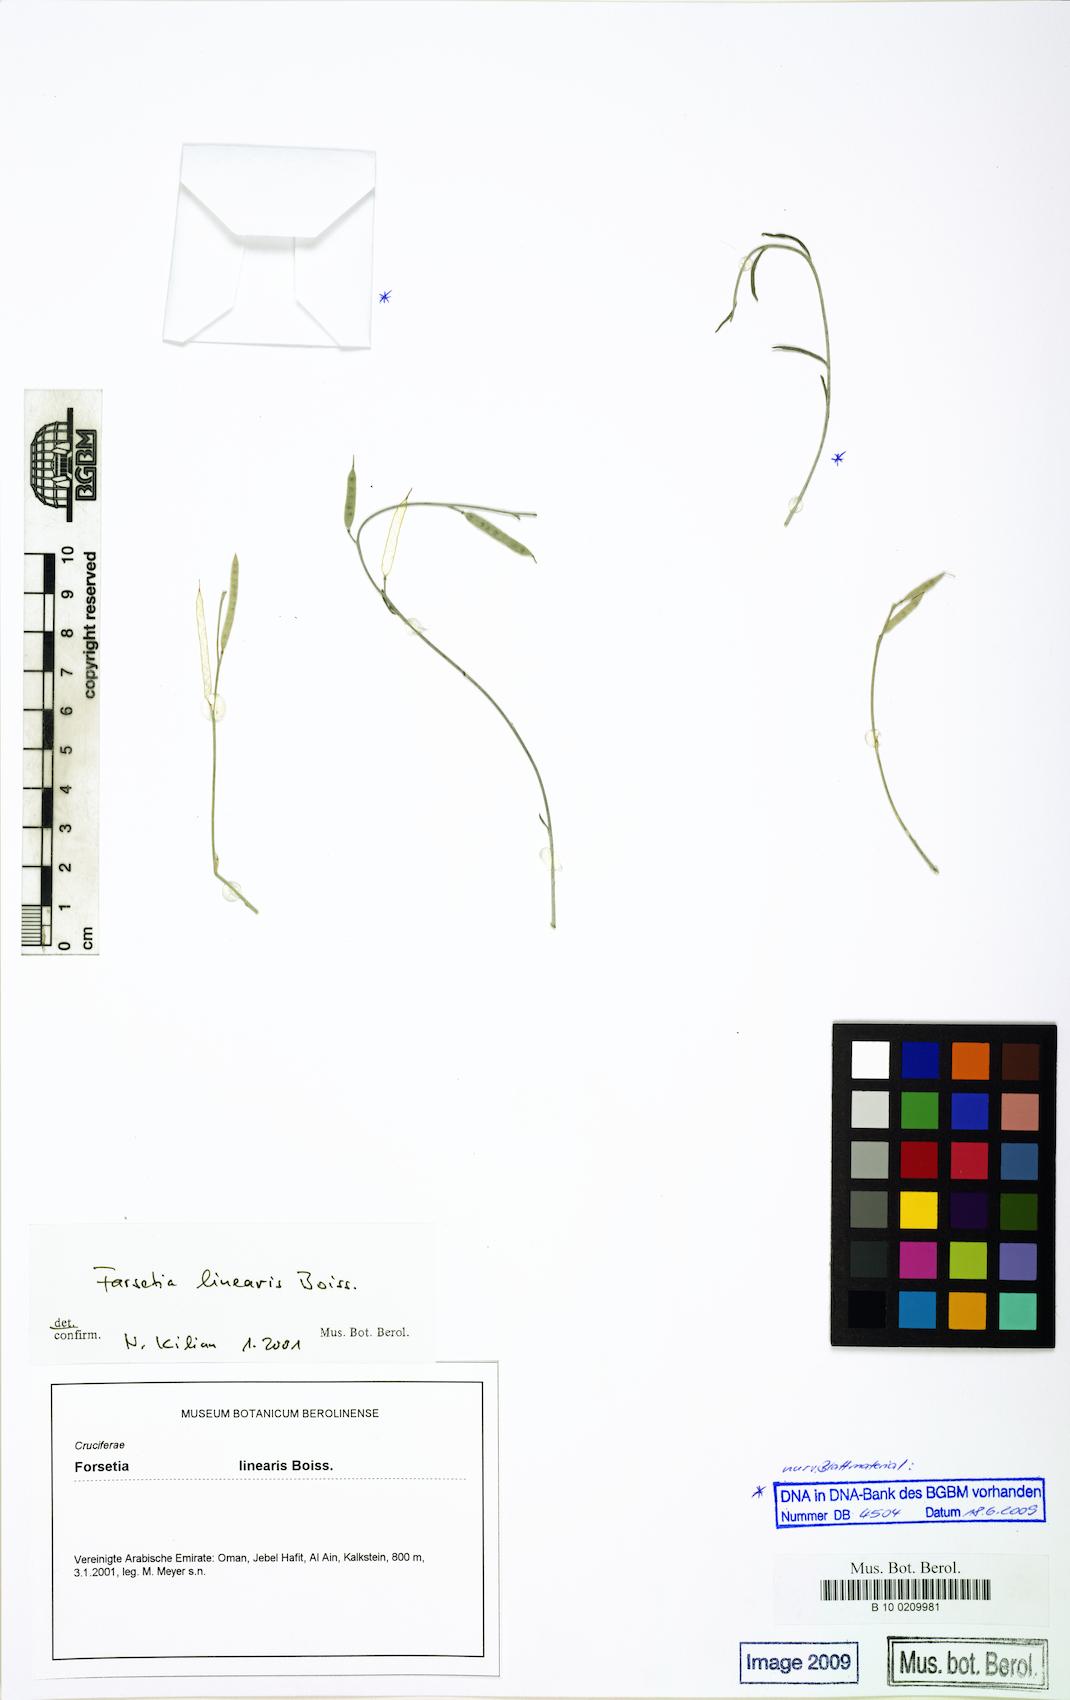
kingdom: Plantae
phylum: Tracheophyta
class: Magnoliopsida
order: Brassicales
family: Brassicaceae
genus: Farsetia
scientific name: Farsetia linearis
